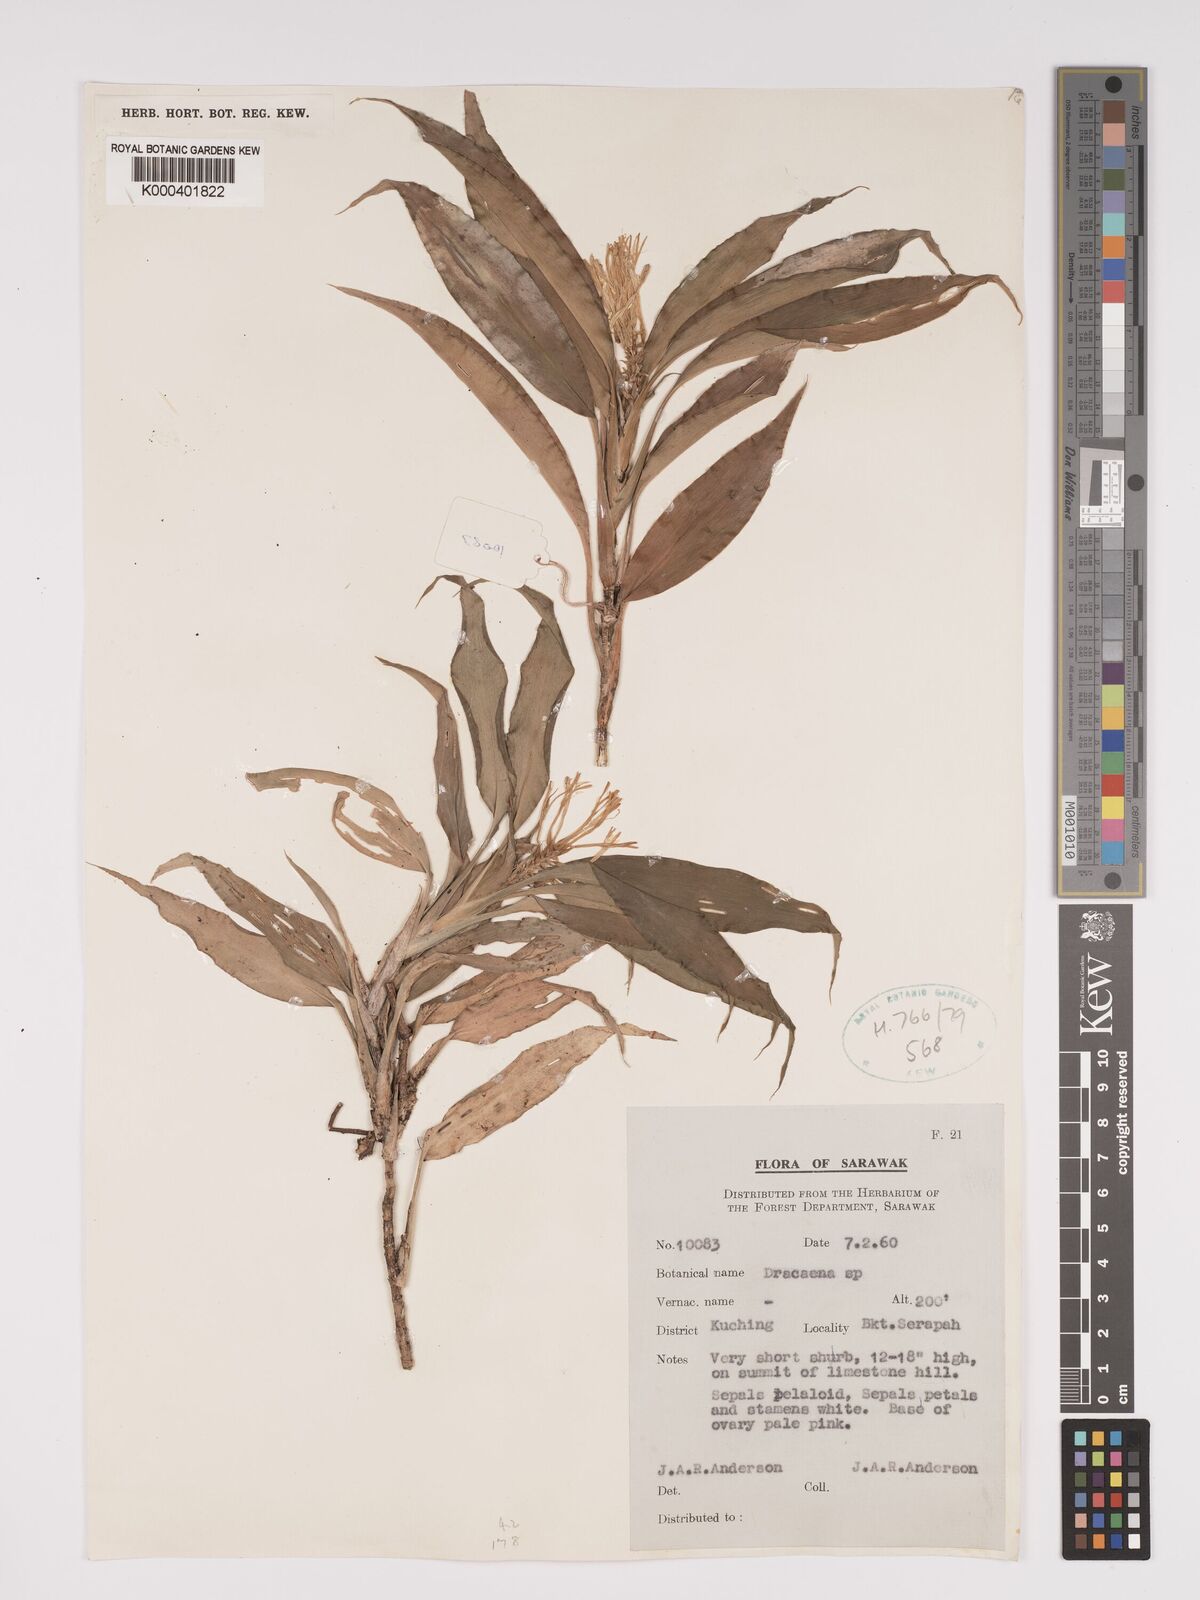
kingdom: Plantae
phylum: Tracheophyta
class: Liliopsida
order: Asparagales
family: Asparagaceae
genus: Dracaena
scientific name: Dracaena
